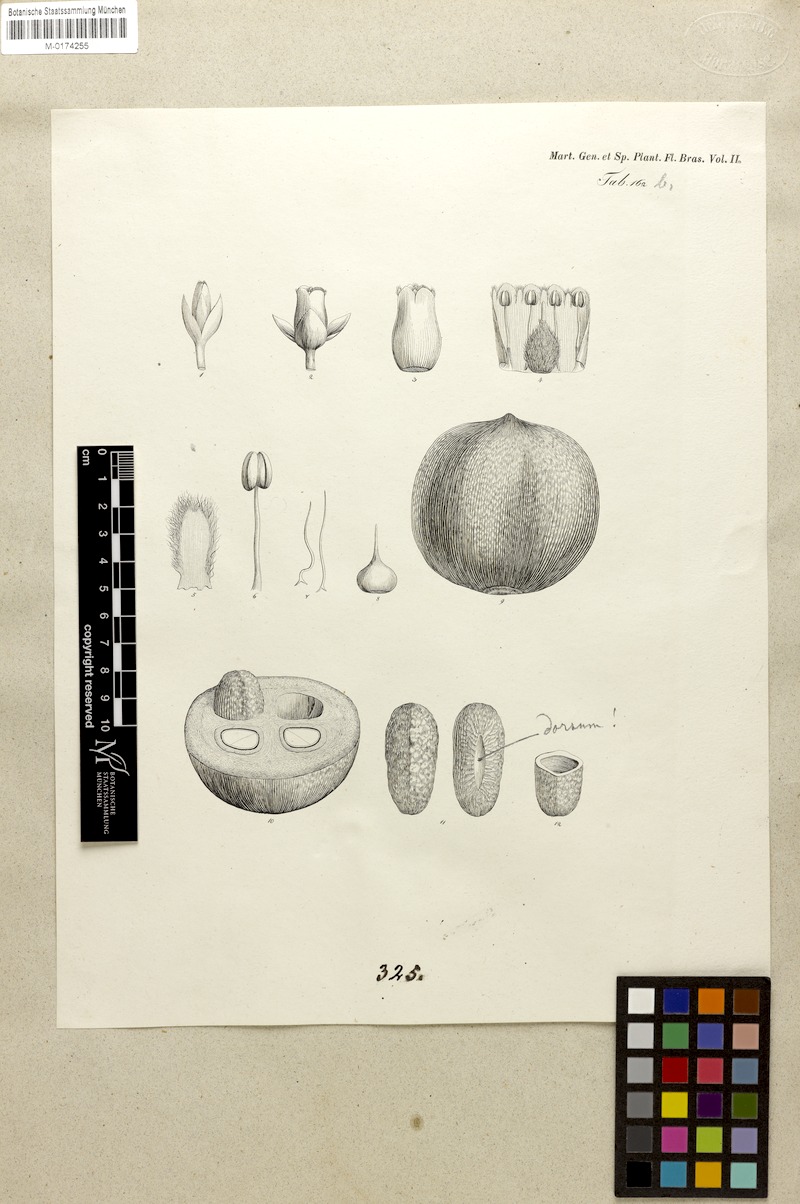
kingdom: Plantae
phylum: Tracheophyta
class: Magnoliopsida
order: Ericales
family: Sapotaceae
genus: Pouteria
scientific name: Pouteria macrocarpa
